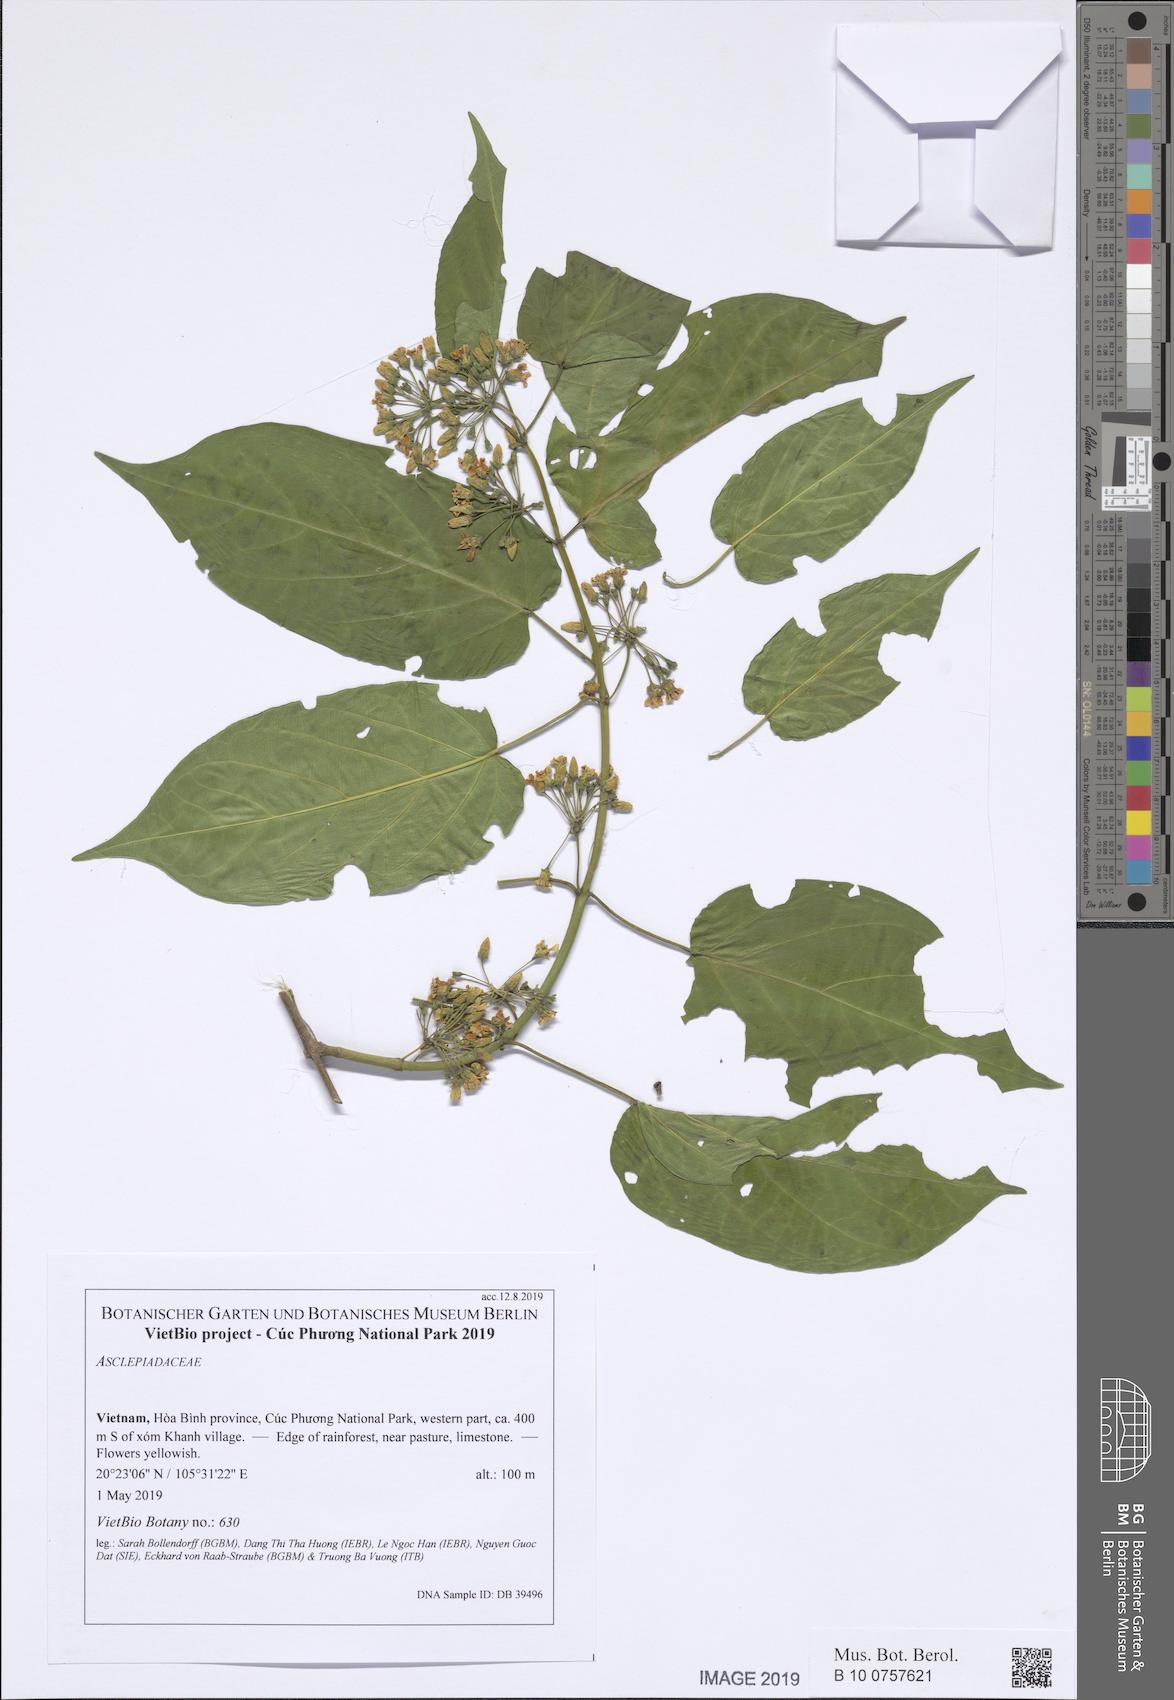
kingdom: Plantae
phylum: Tracheophyta
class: Magnoliopsida
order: Gentianales
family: Apocynaceae
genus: Gymnema
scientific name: Gymnema
